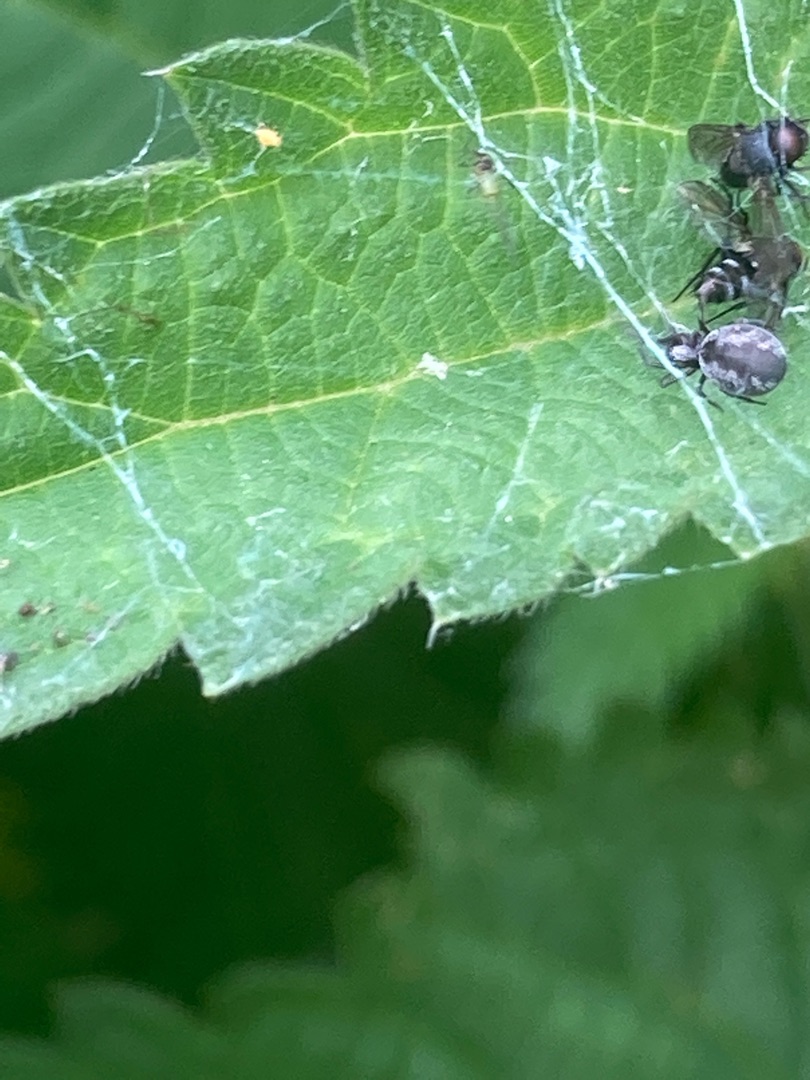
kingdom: Animalia
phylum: Arthropoda
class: Arachnida
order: Araneae
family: Dictynidae
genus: Brigittea
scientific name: Brigittea latens
